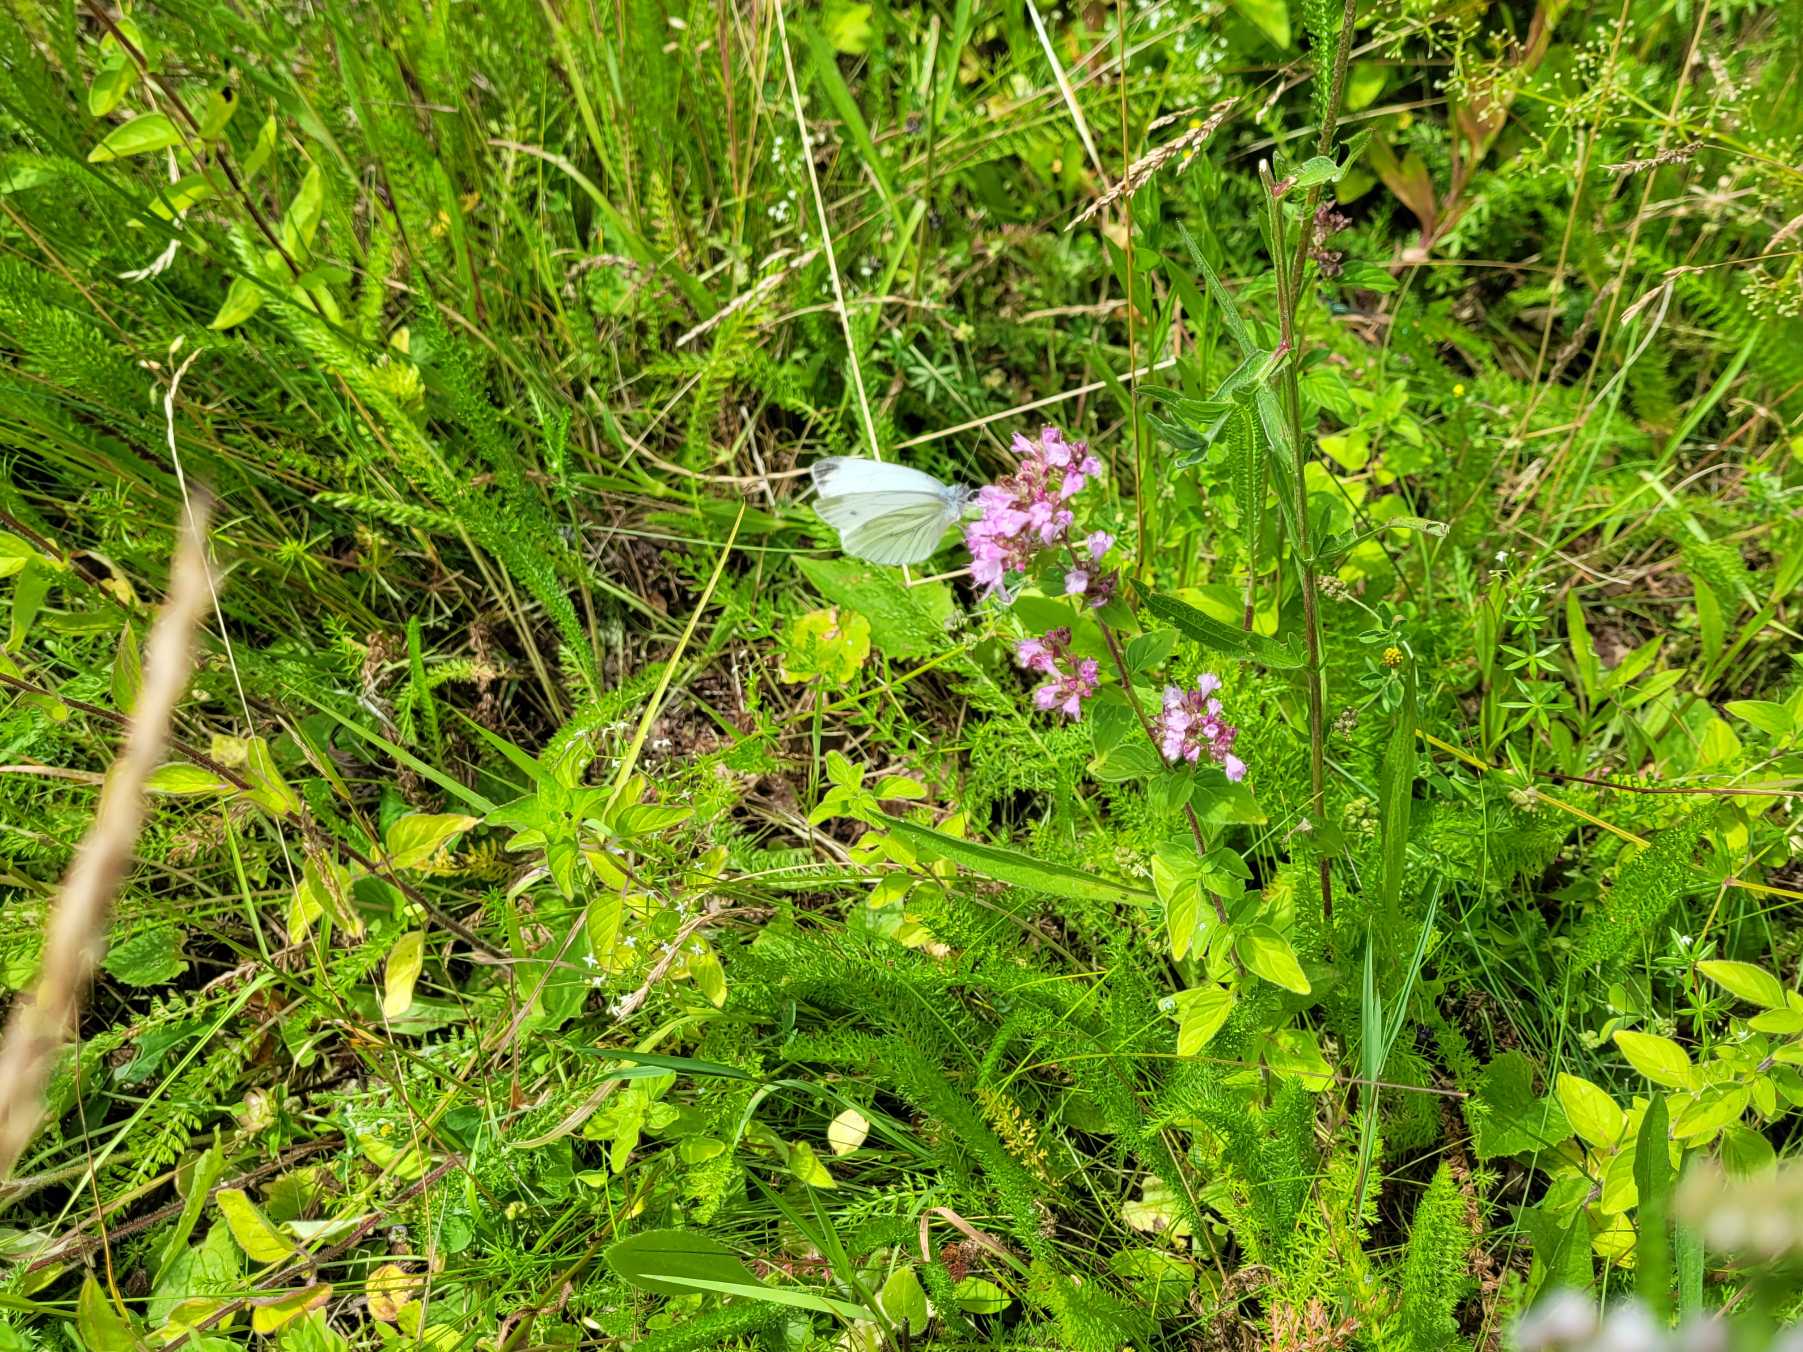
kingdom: Animalia
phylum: Arthropoda
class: Insecta
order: Lepidoptera
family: Pieridae
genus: Pieris
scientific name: Pieris napi
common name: Grønåret kålsommerfugl
